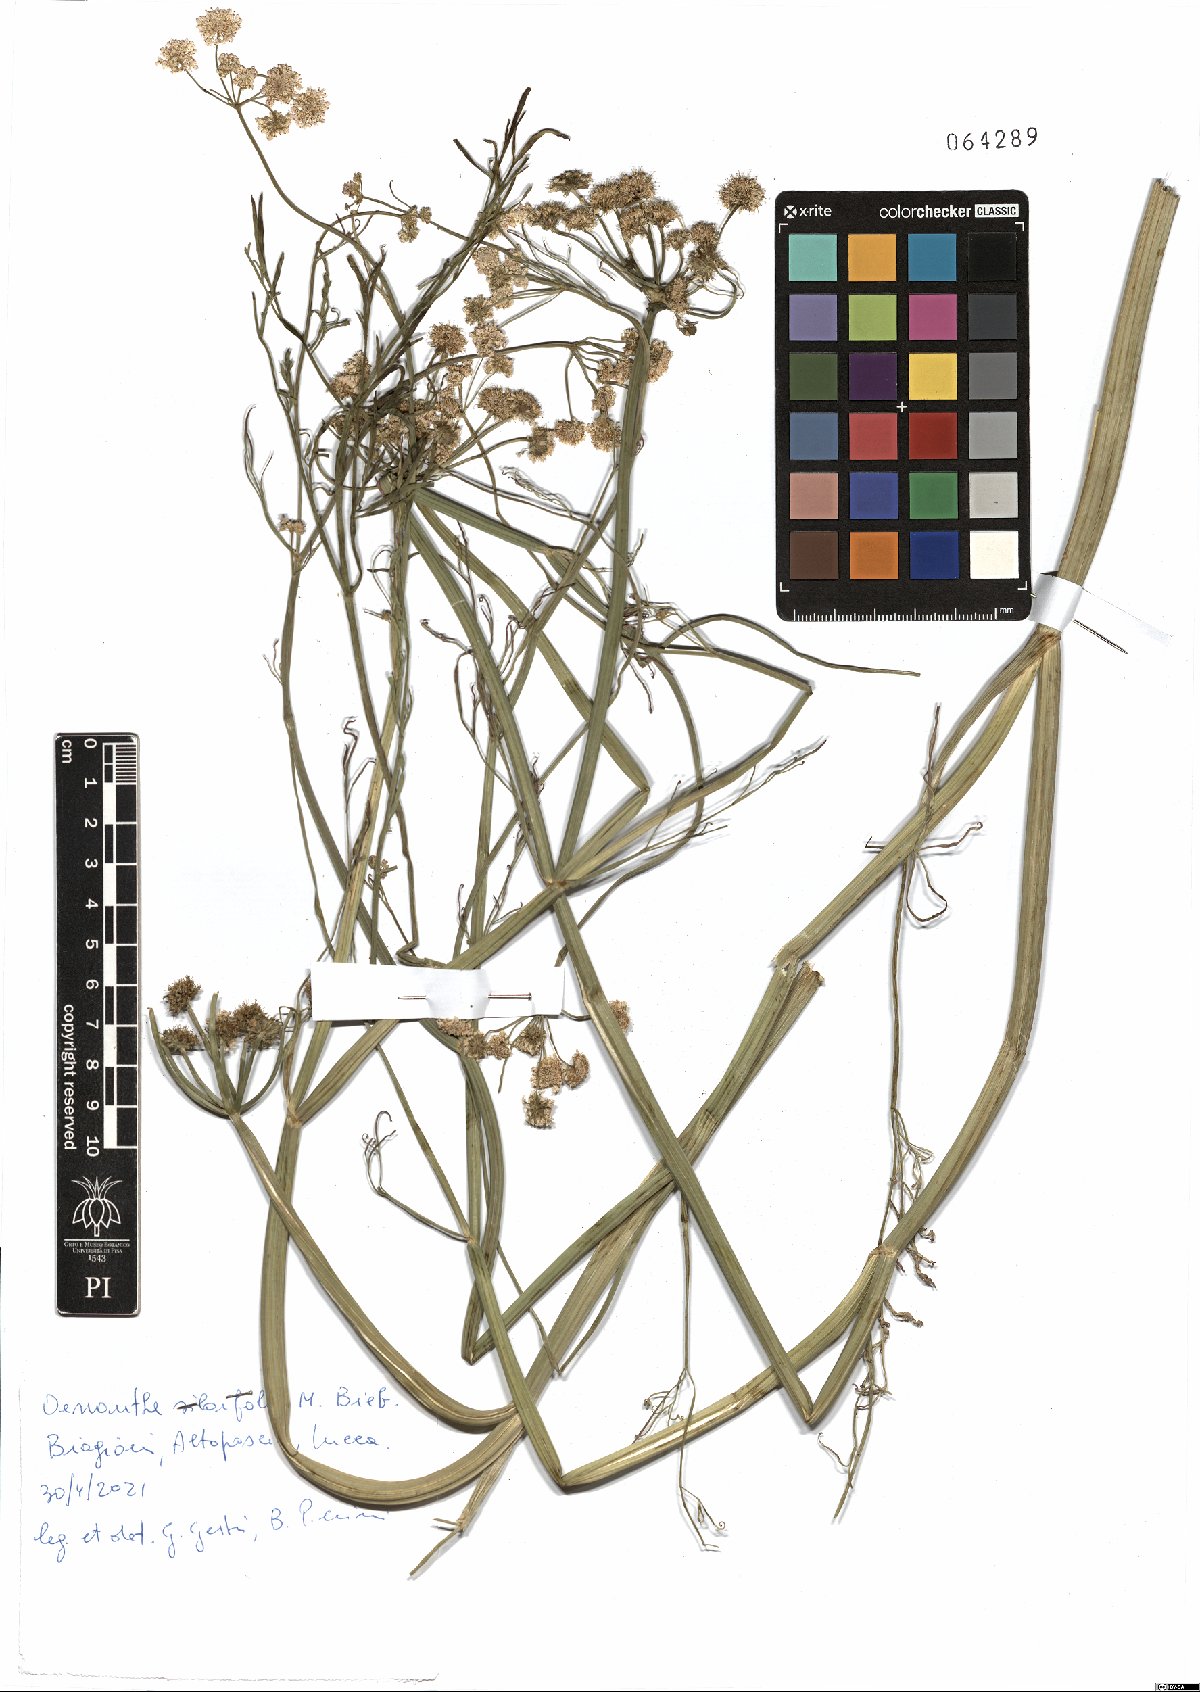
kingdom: Plantae
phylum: Tracheophyta
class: Magnoliopsida
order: Apiales
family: Apiaceae
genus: Oenanthe
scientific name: Oenanthe silaifolia
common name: Narrow-leaved water-dropwort
